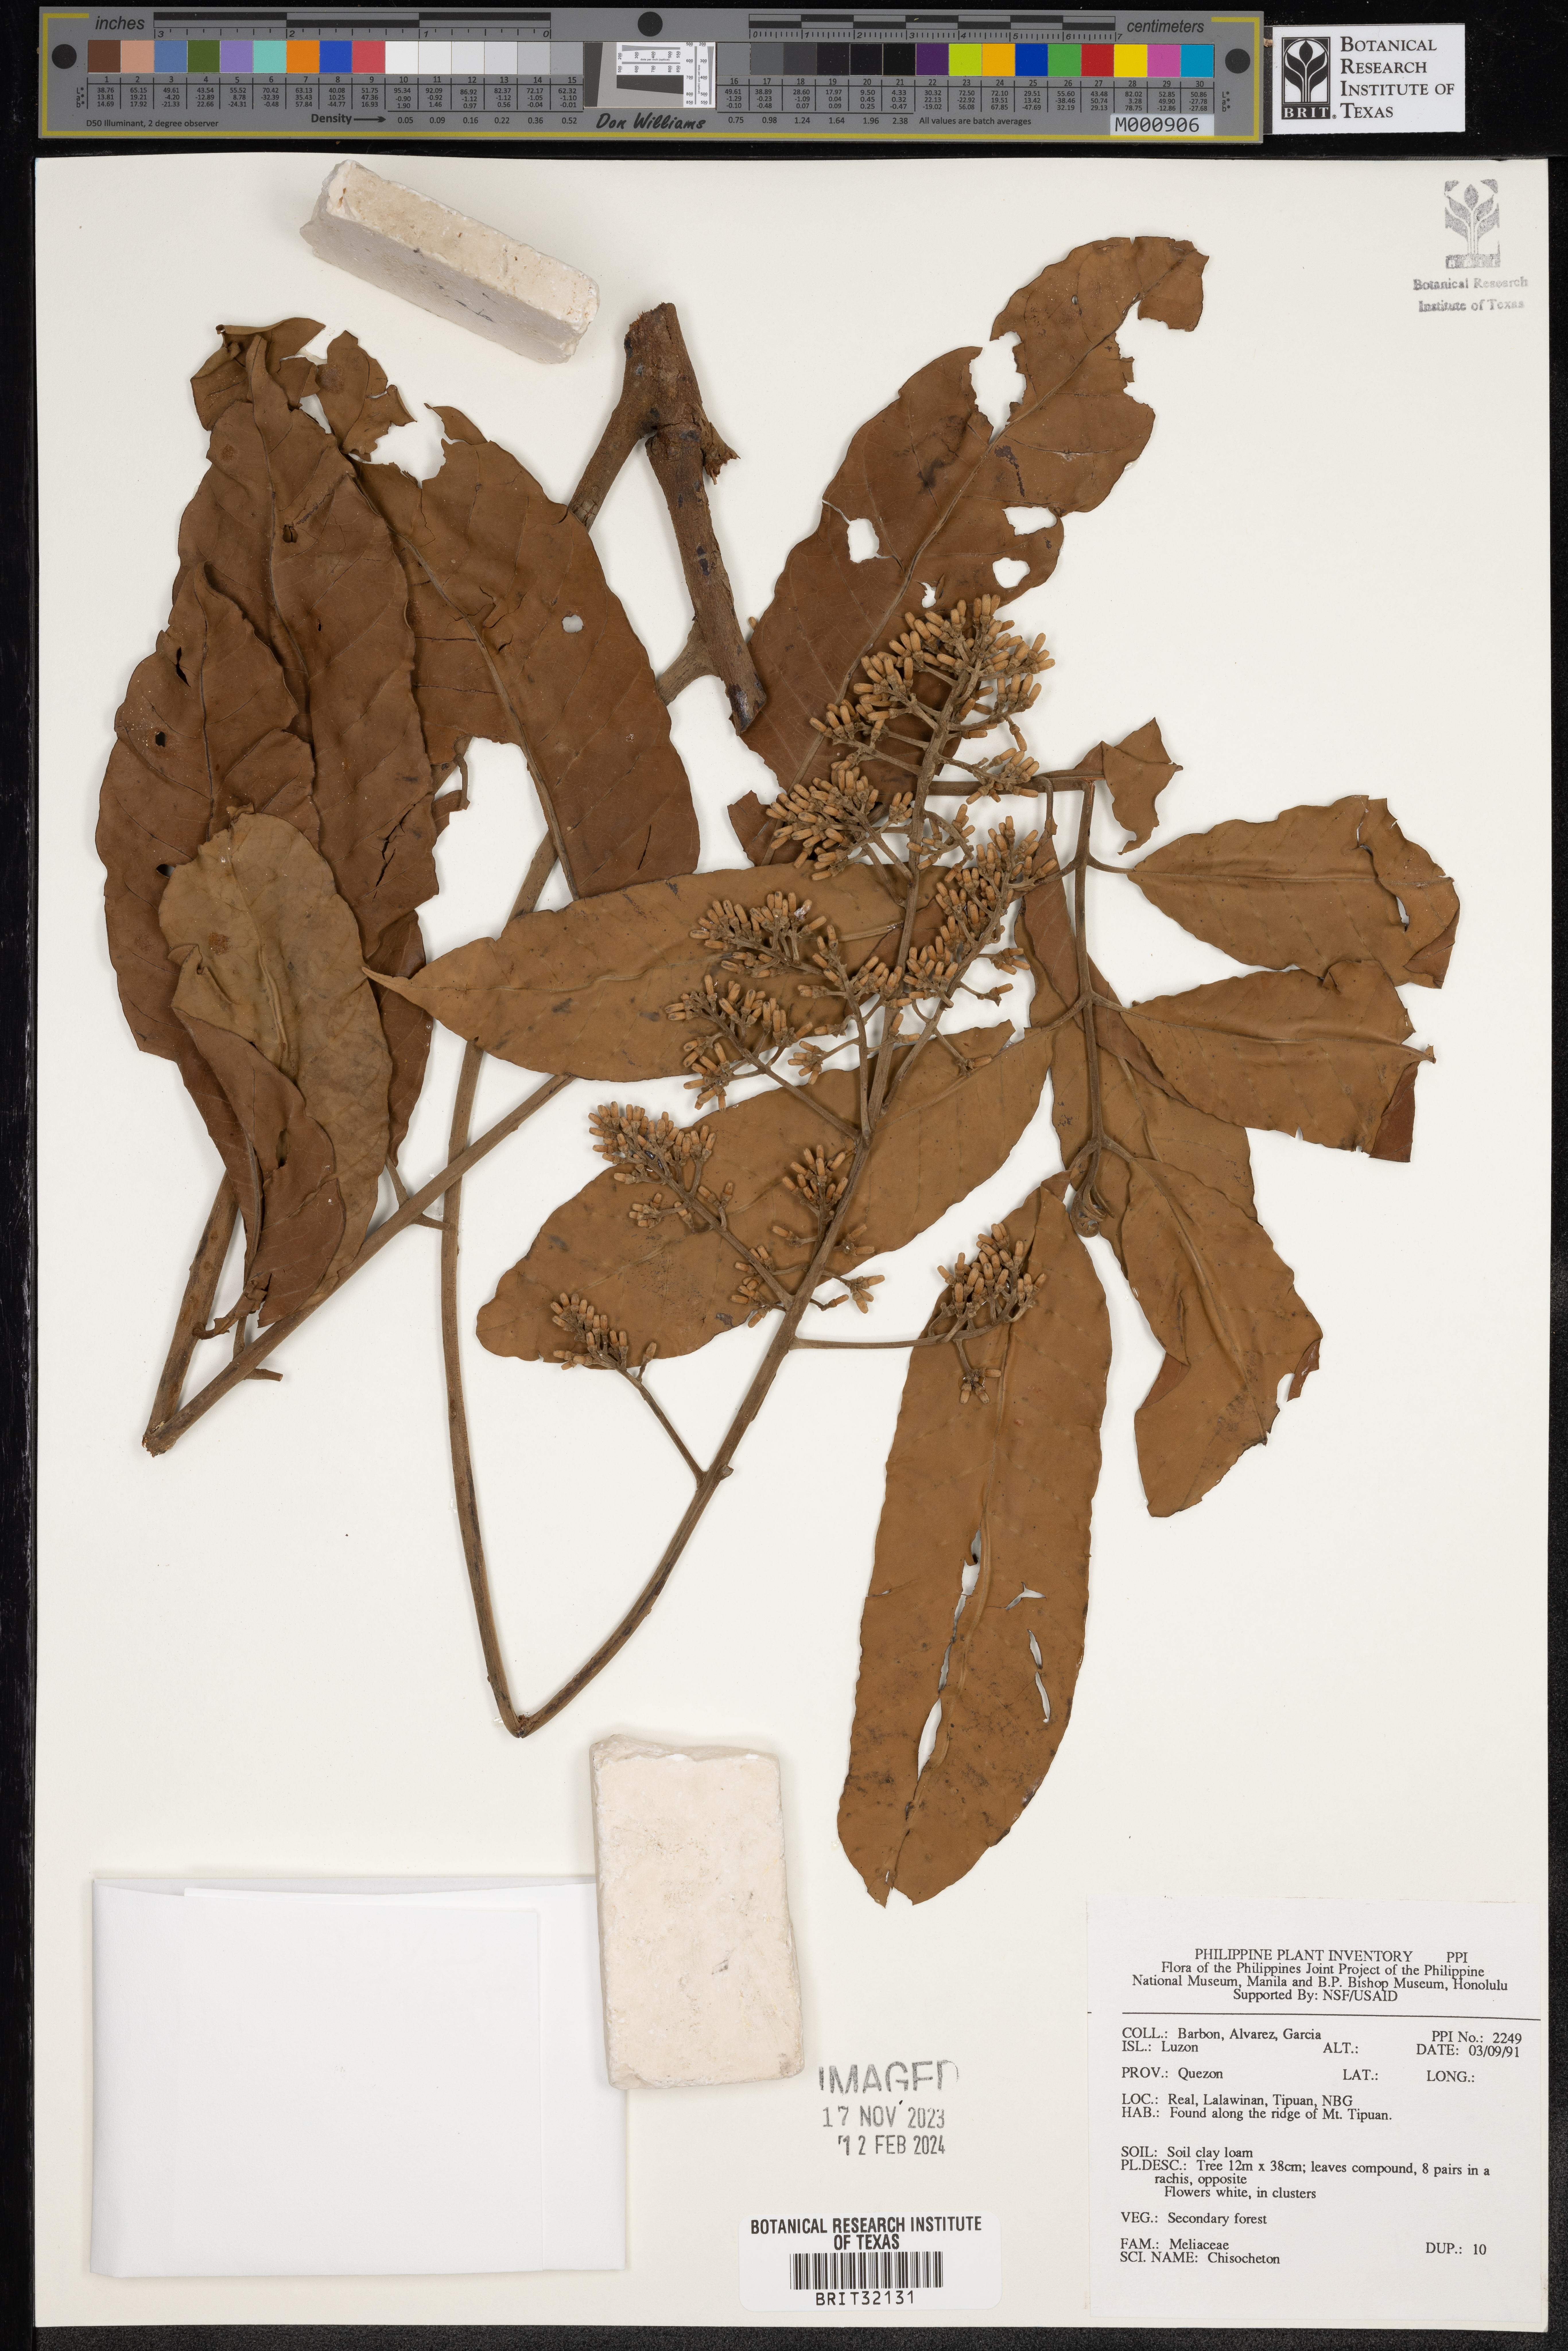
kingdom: Plantae
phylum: Tracheophyta
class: Magnoliopsida
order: Sapindales
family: Meliaceae
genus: Chisocheton
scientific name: Chisocheton
